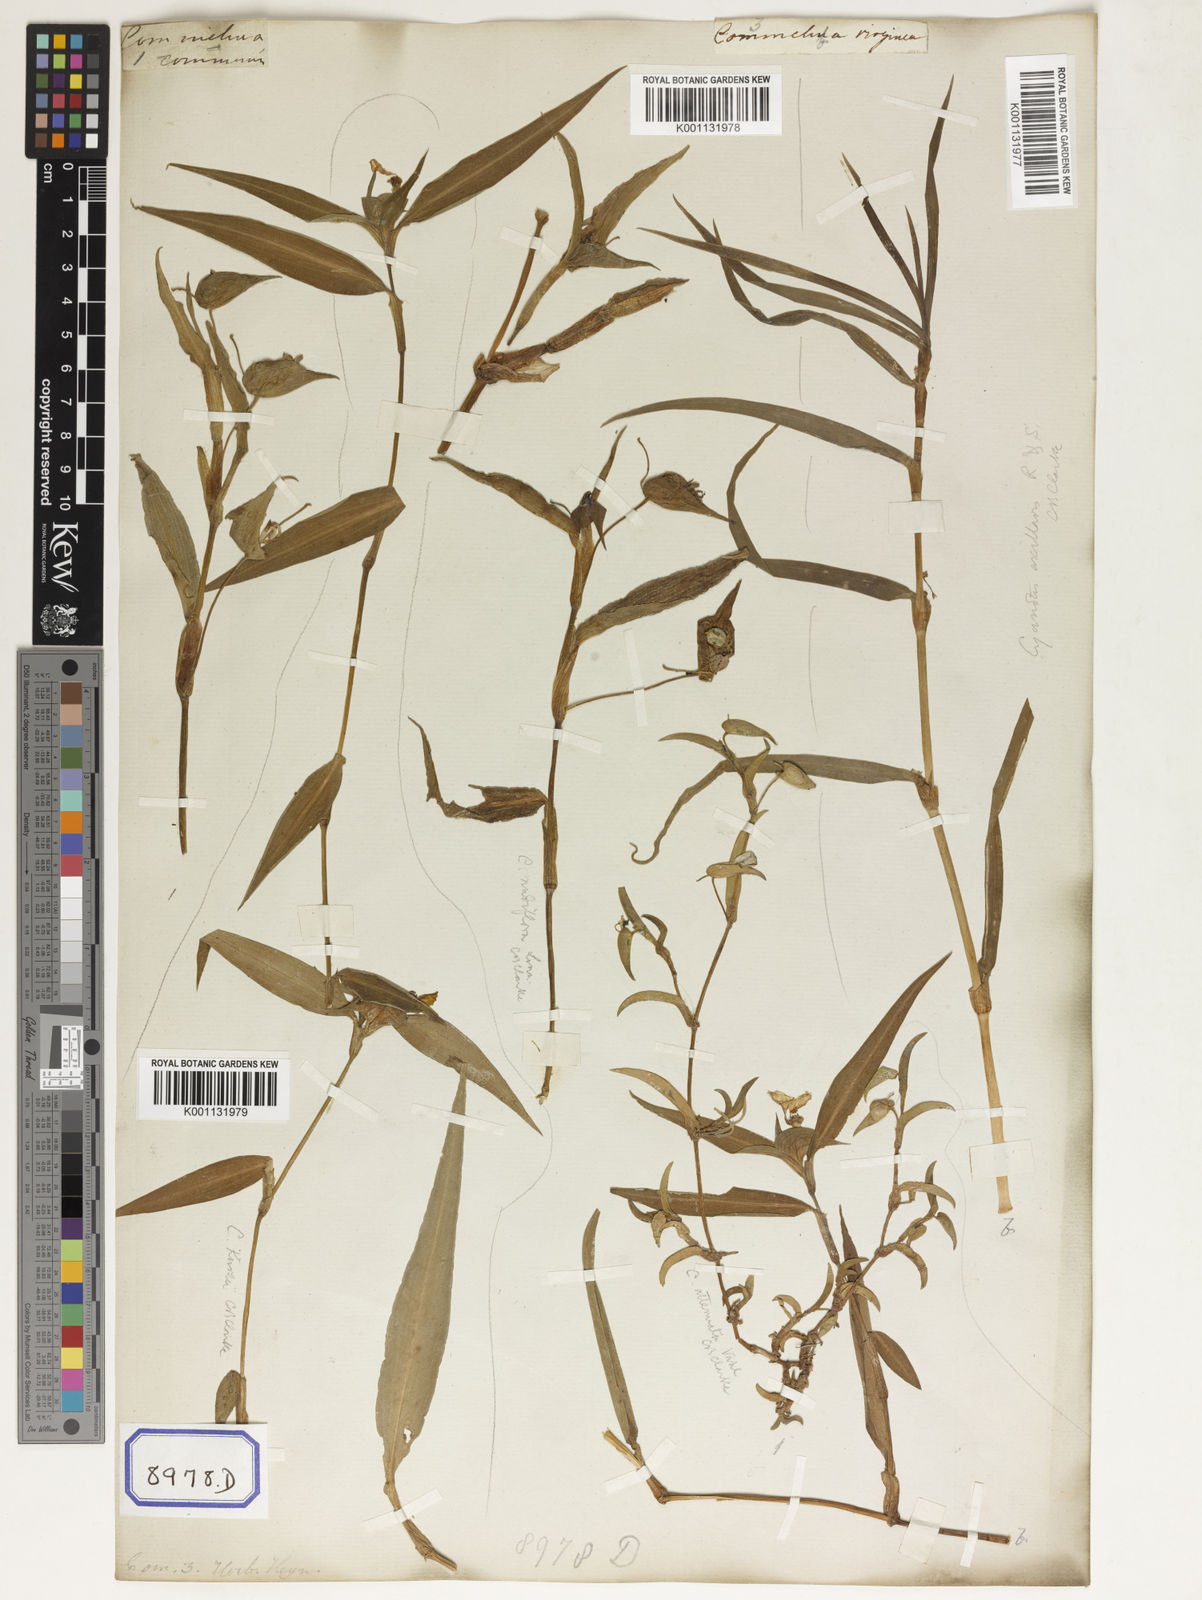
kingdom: Plantae
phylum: Tracheophyta
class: Liliopsida
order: Commelinales
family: Commelinaceae
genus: Commelina
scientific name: Commelina communis
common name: Asiatic dayflower
